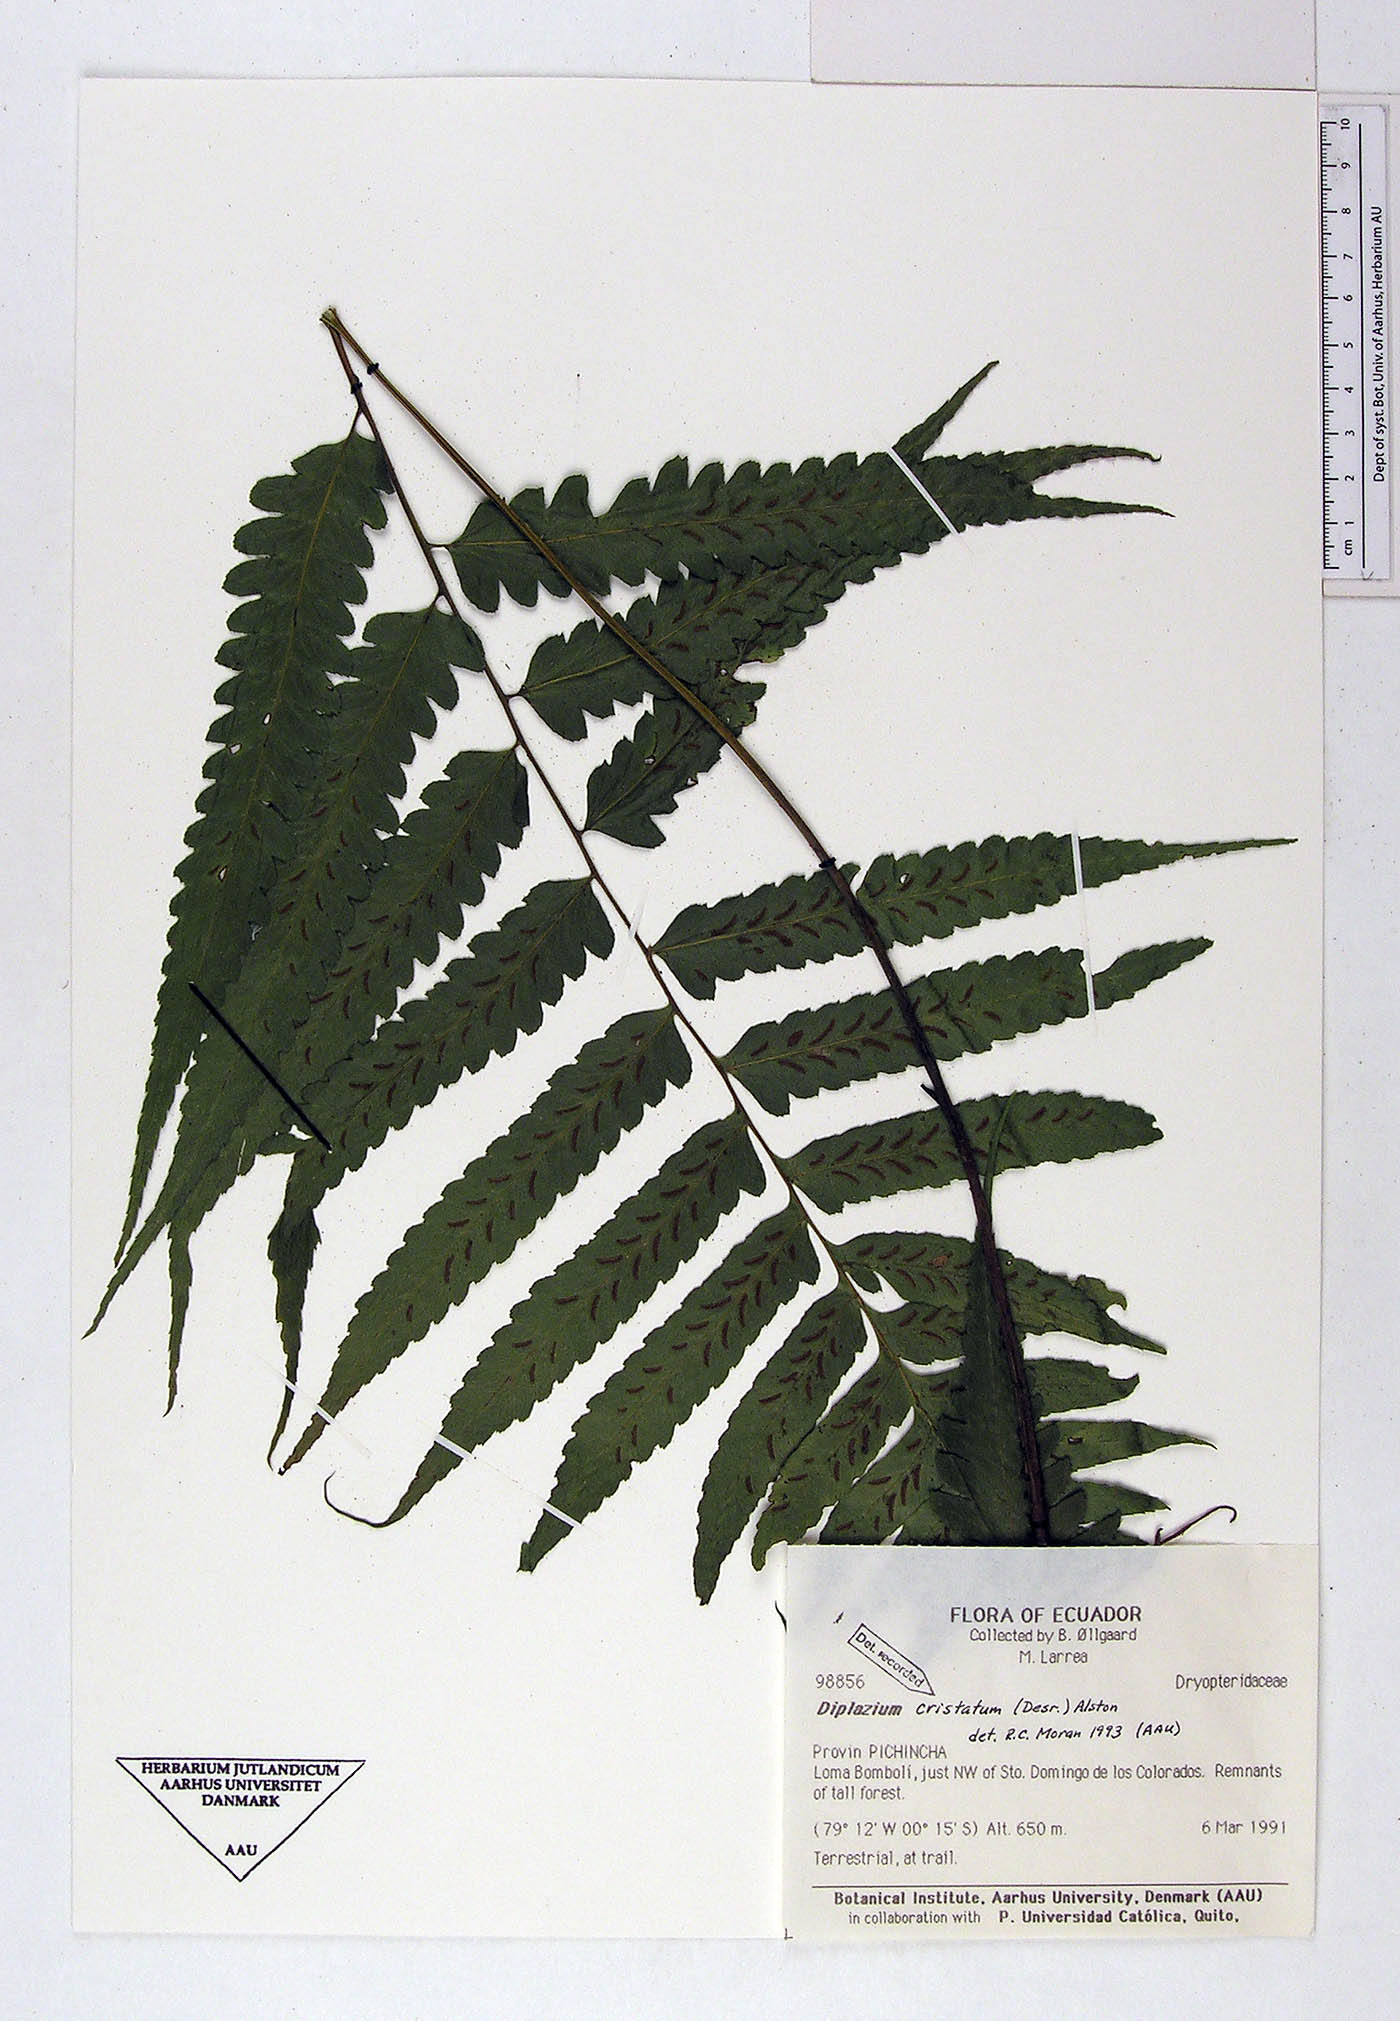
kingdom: Plantae
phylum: Tracheophyta
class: Polypodiopsida
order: Polypodiales
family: Athyriaceae
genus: Diplazium
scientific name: Diplazium cristatum
